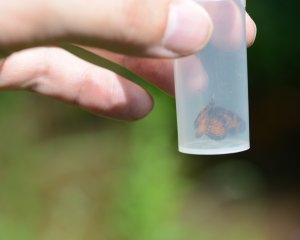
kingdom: Animalia
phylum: Arthropoda
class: Insecta
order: Lepidoptera
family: Nymphalidae
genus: Phyciodes
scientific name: Phyciodes tharos
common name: Northern Crescent
